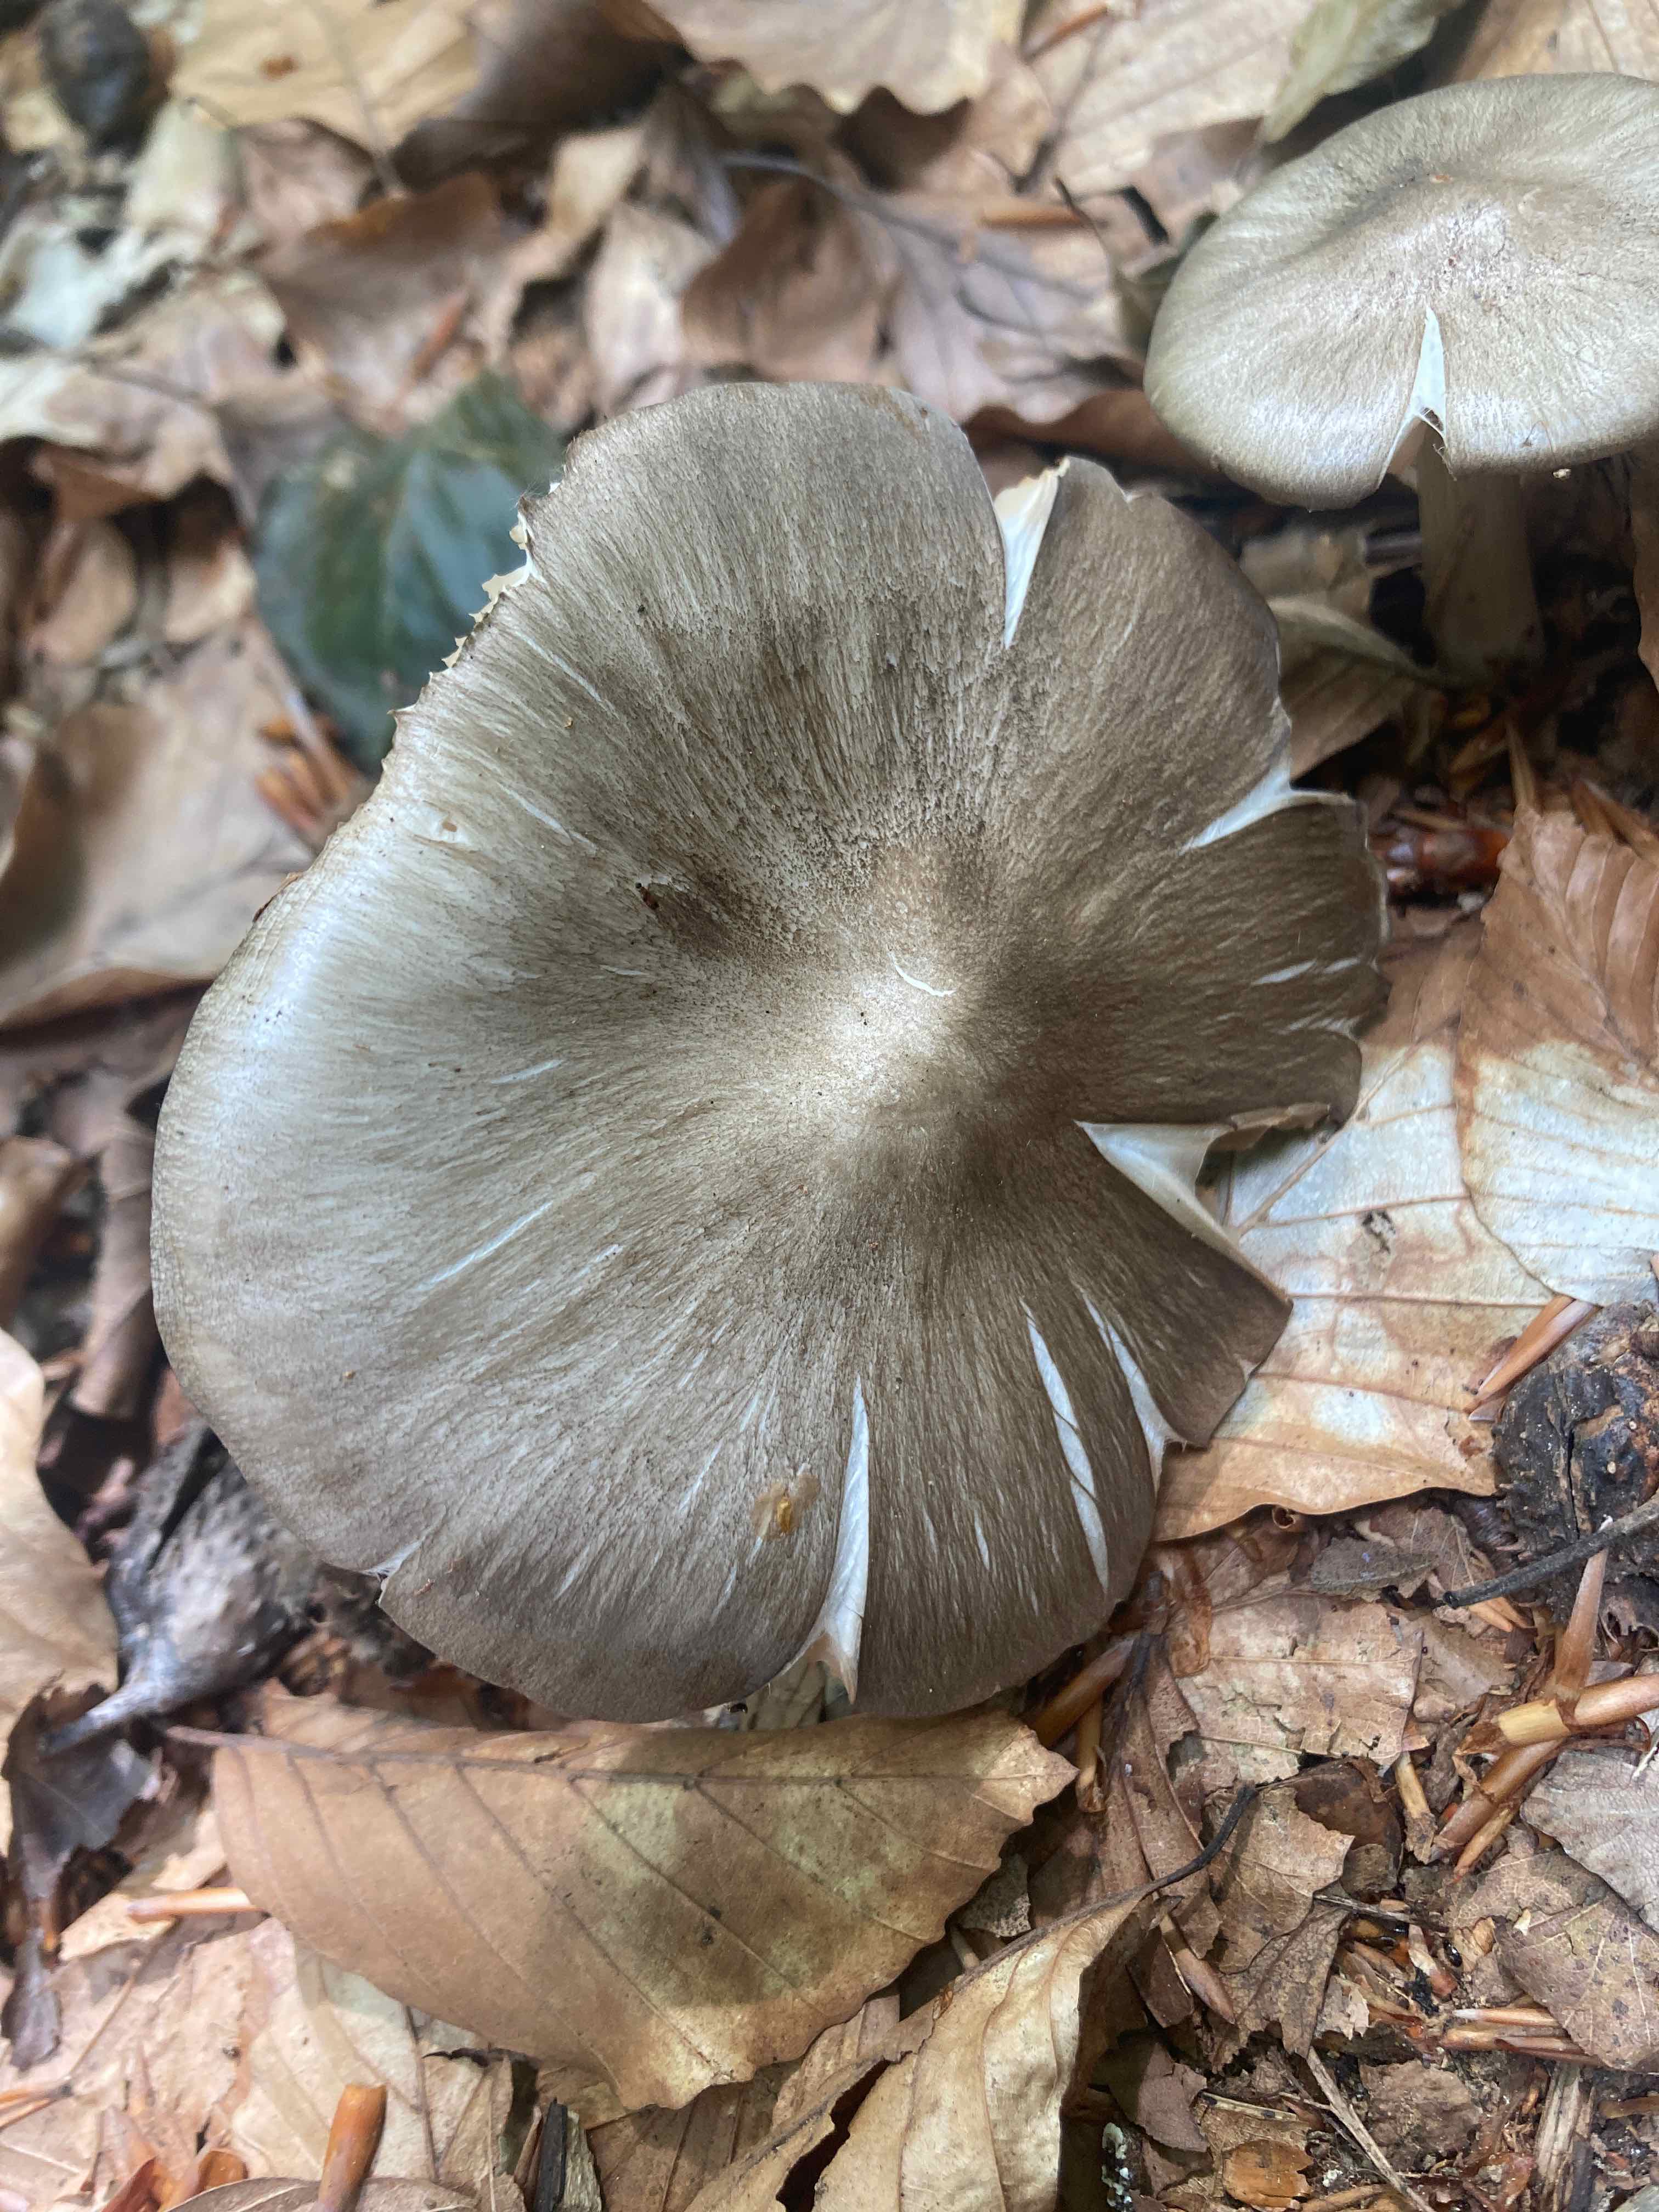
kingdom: Fungi
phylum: Basidiomycota
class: Agaricomycetes
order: Agaricales
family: Tricholomataceae
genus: Megacollybia
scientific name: Megacollybia platyphylla
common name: bredbladet væbnerhat
